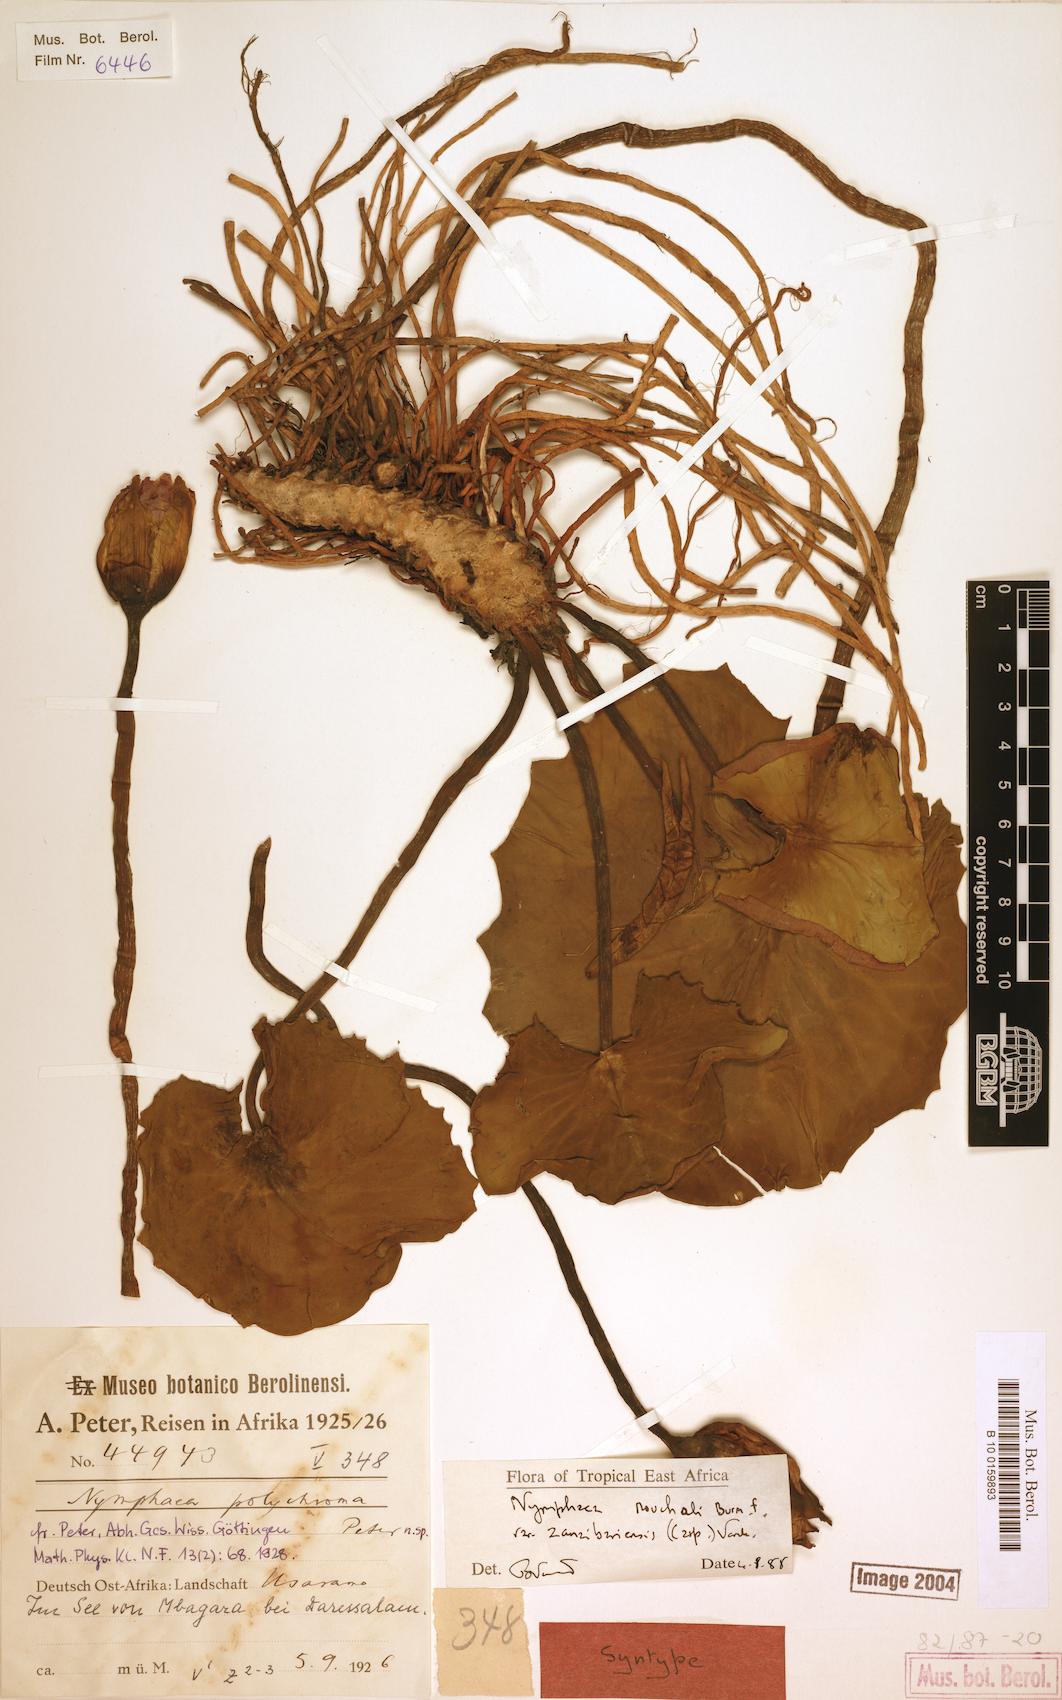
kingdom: Plantae
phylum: Tracheophyta
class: Magnoliopsida
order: Nymphaeales
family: Nymphaeaceae
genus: Nymphaea
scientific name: Nymphaea nouchali
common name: Blue lotus
